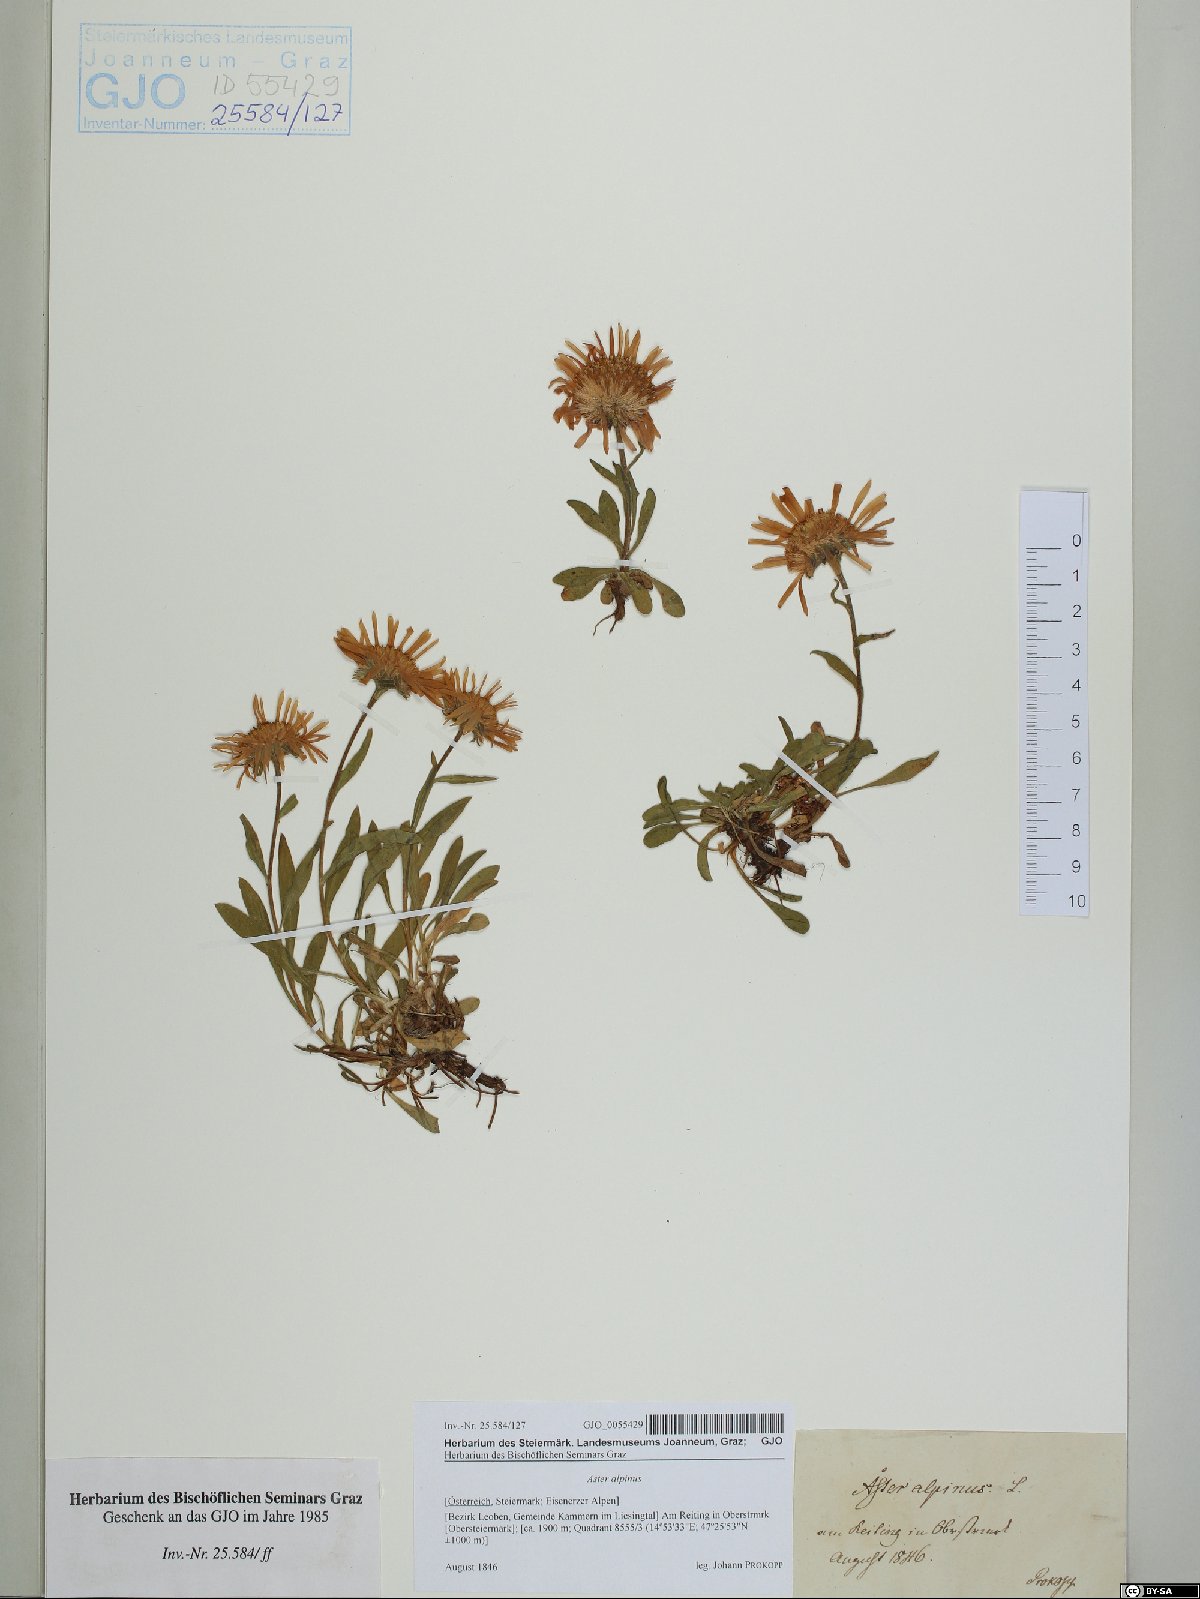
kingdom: Plantae
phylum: Tracheophyta
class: Magnoliopsida
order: Asterales
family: Asteraceae
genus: Aster
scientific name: Aster alpinus
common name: Alpine aster
